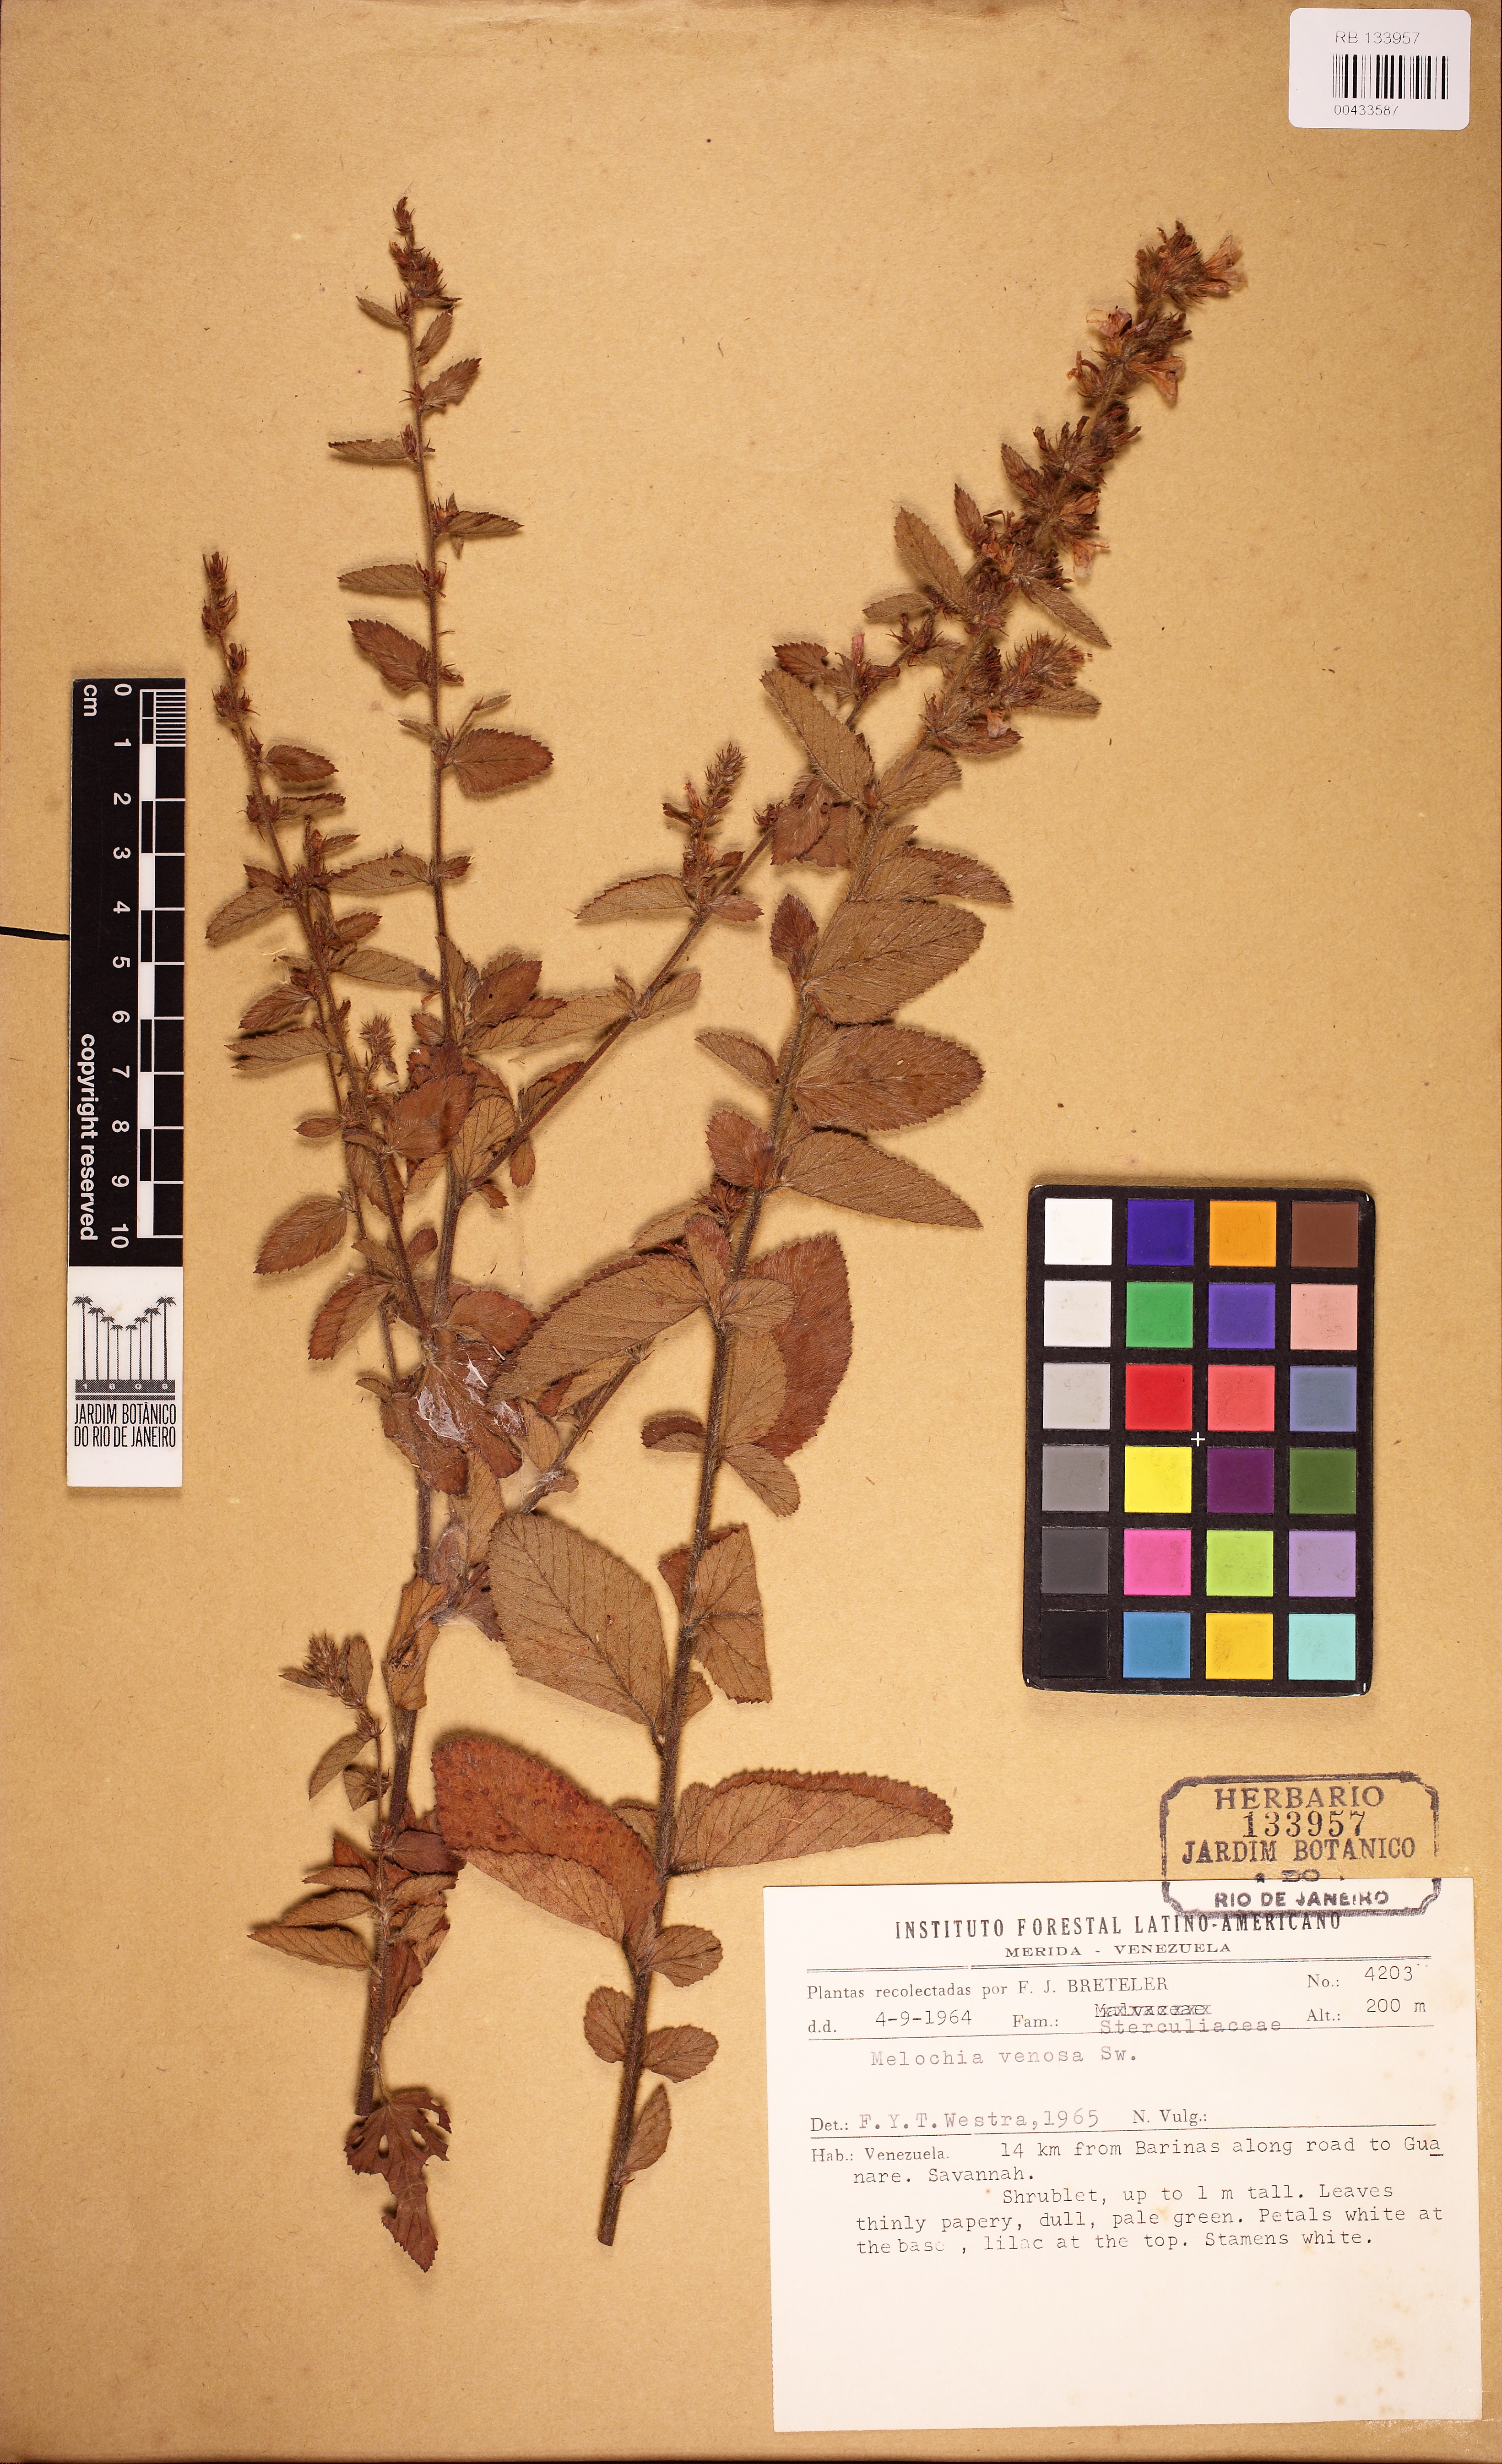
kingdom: Plantae
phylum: Tracheophyta
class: Magnoliopsida
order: Malvales
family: Malvaceae
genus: Melochia
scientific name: Melochia spicata
